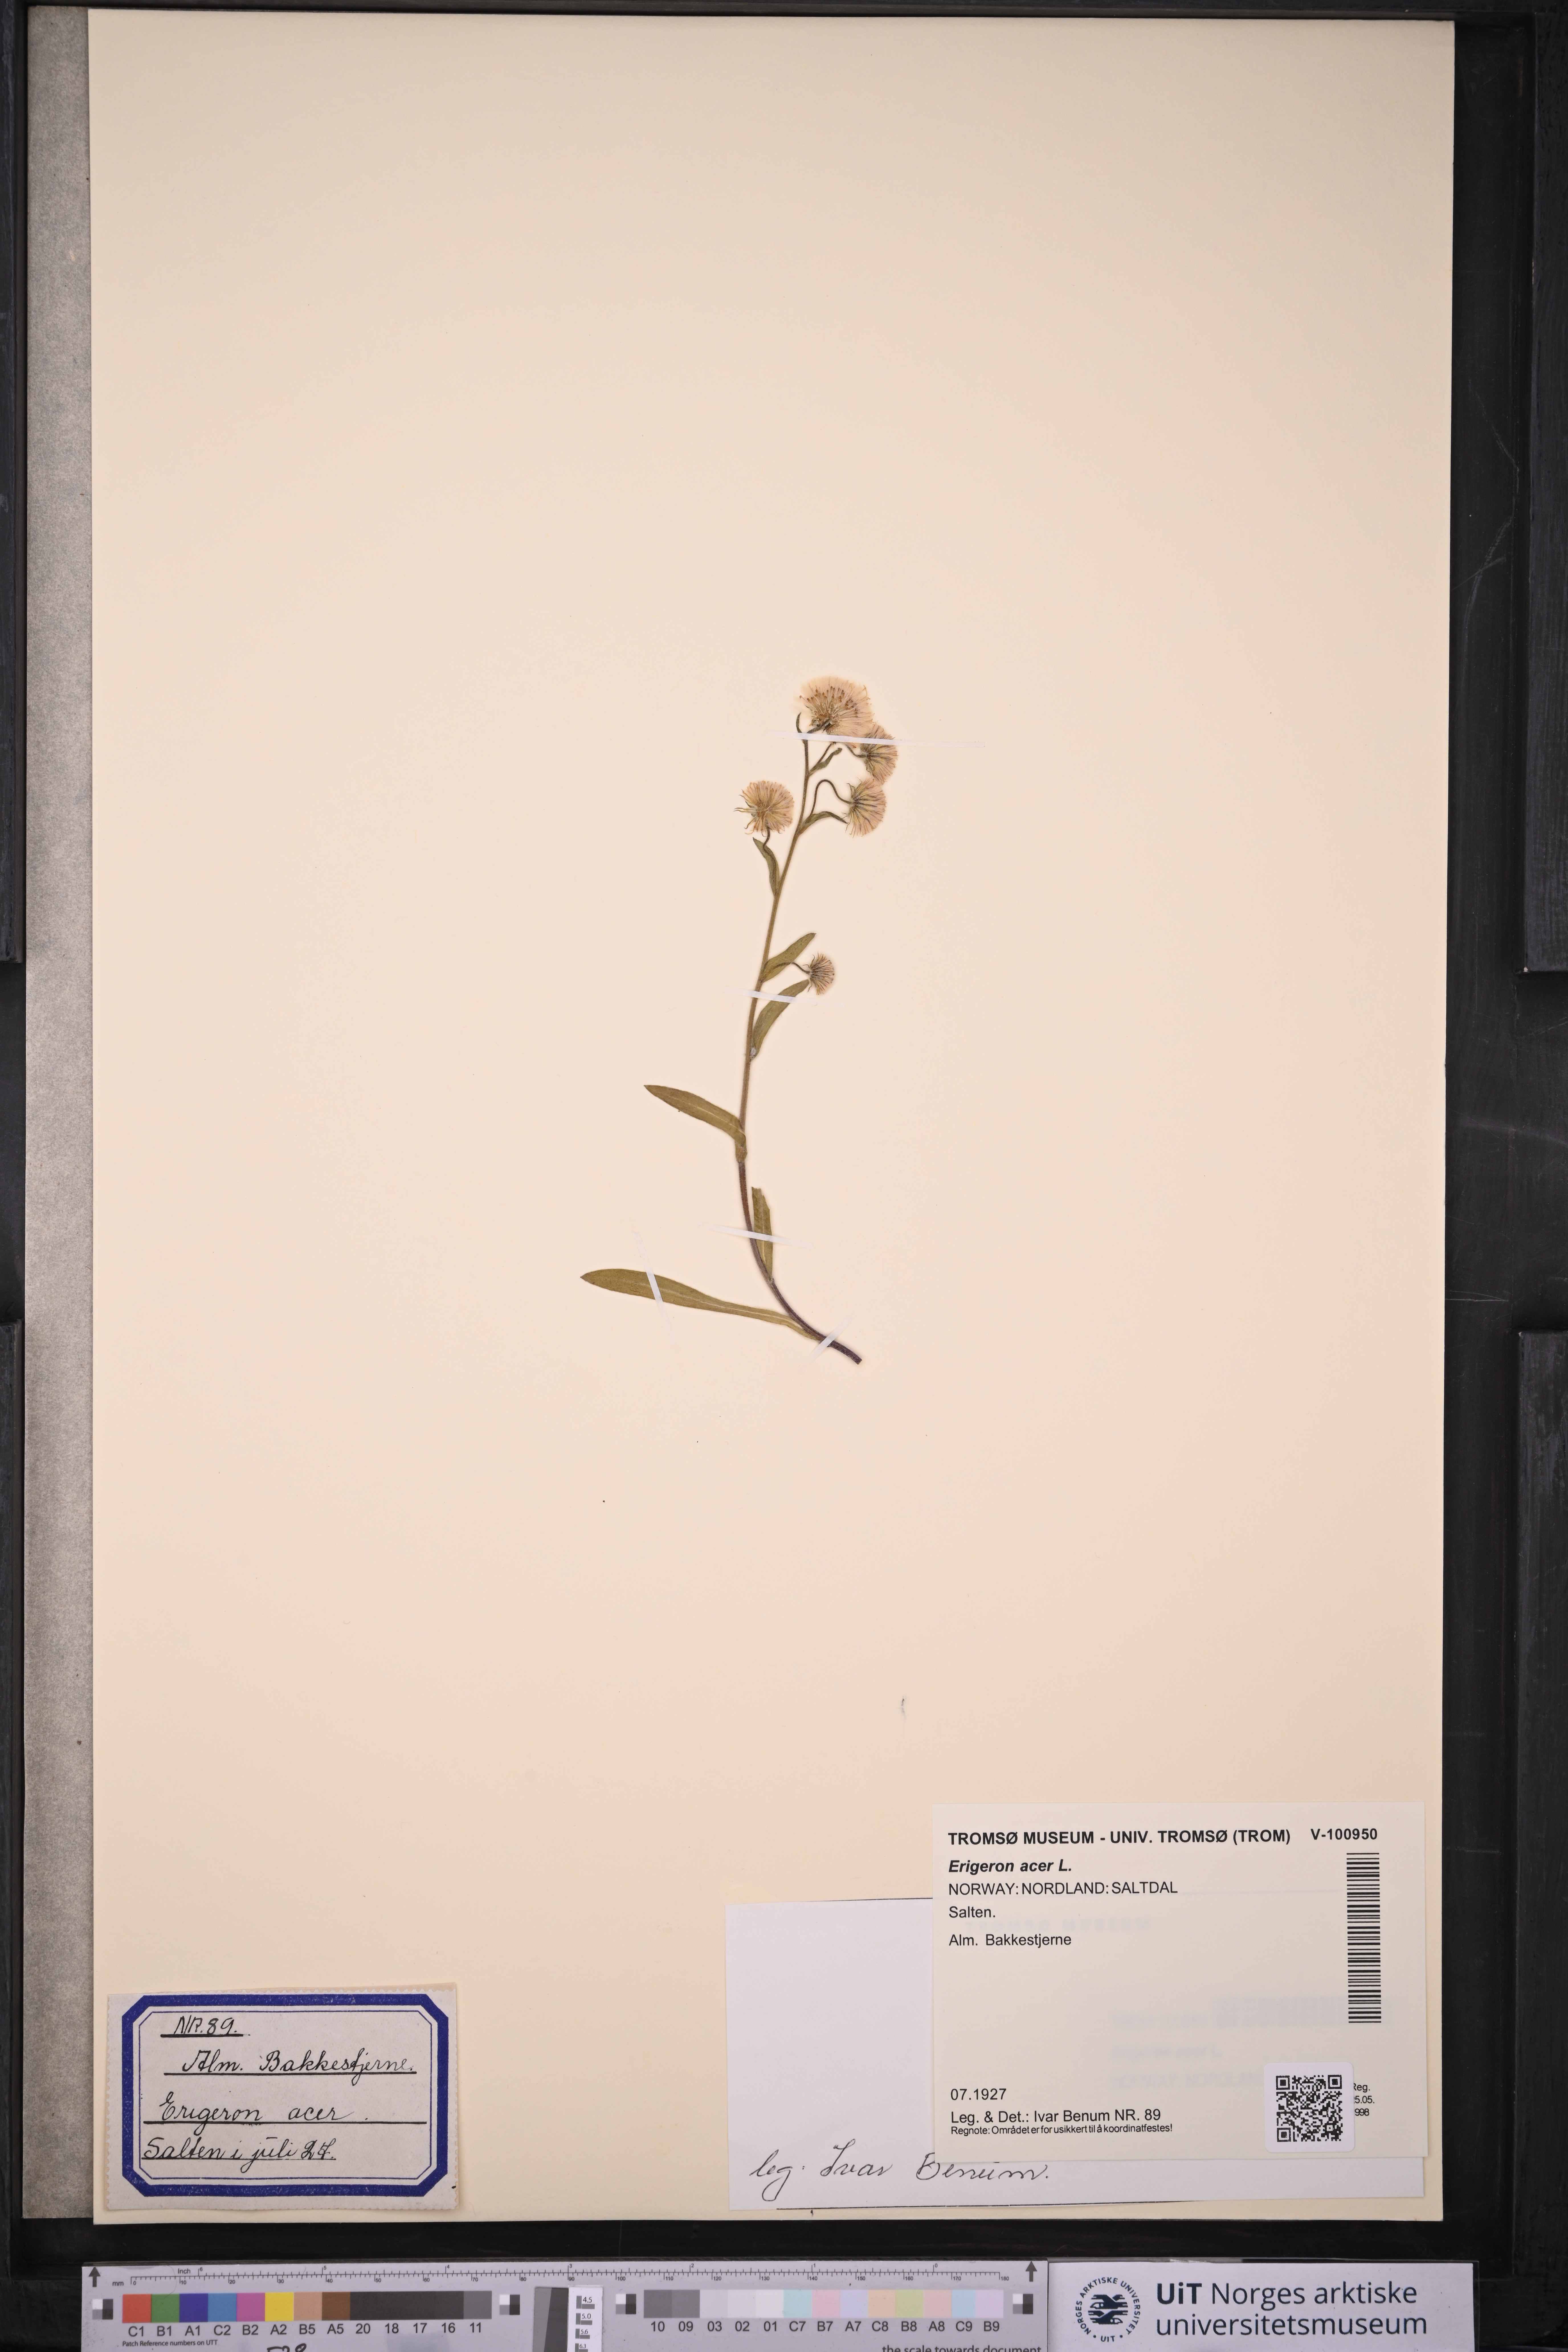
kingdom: Plantae
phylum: Tracheophyta
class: Magnoliopsida
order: Asterales
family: Asteraceae
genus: Erigeron
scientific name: Erigeron acris
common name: Blue fleabane
